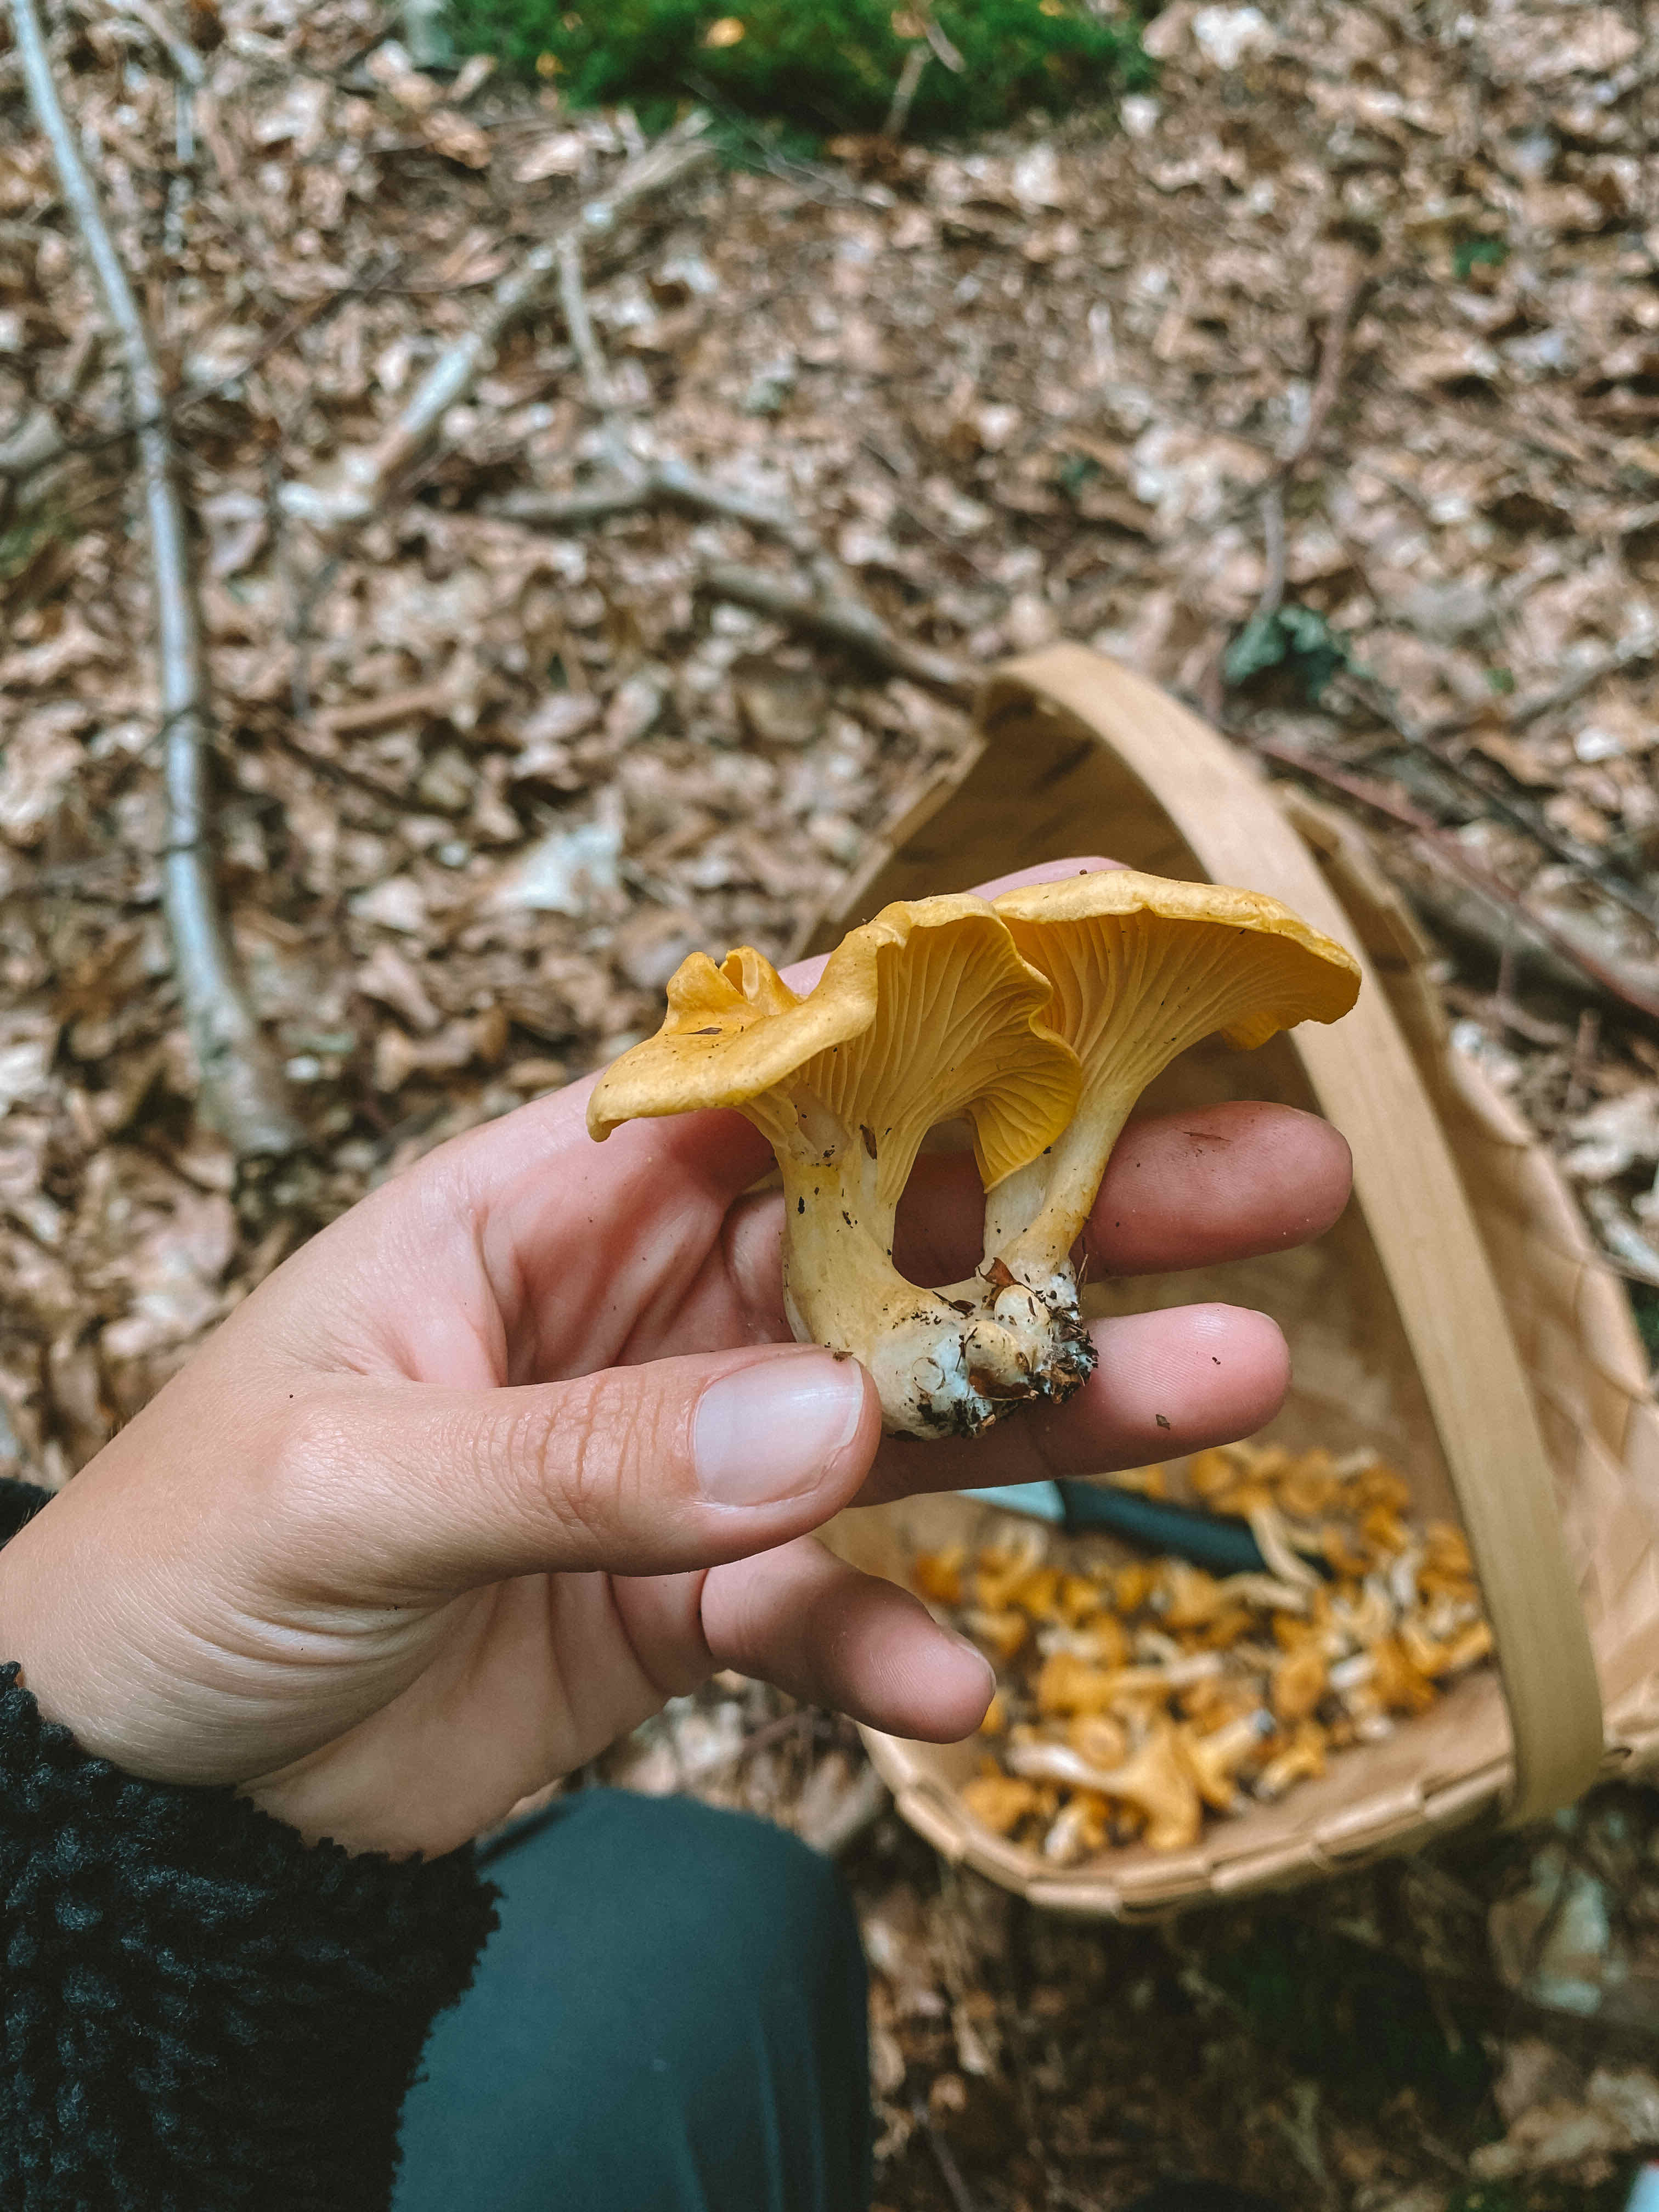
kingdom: Fungi
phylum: Basidiomycota
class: Agaricomycetes
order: Cantharellales
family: Hydnaceae
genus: Cantharellus
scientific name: Cantharellus cibarius
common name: almindelig kantarel
